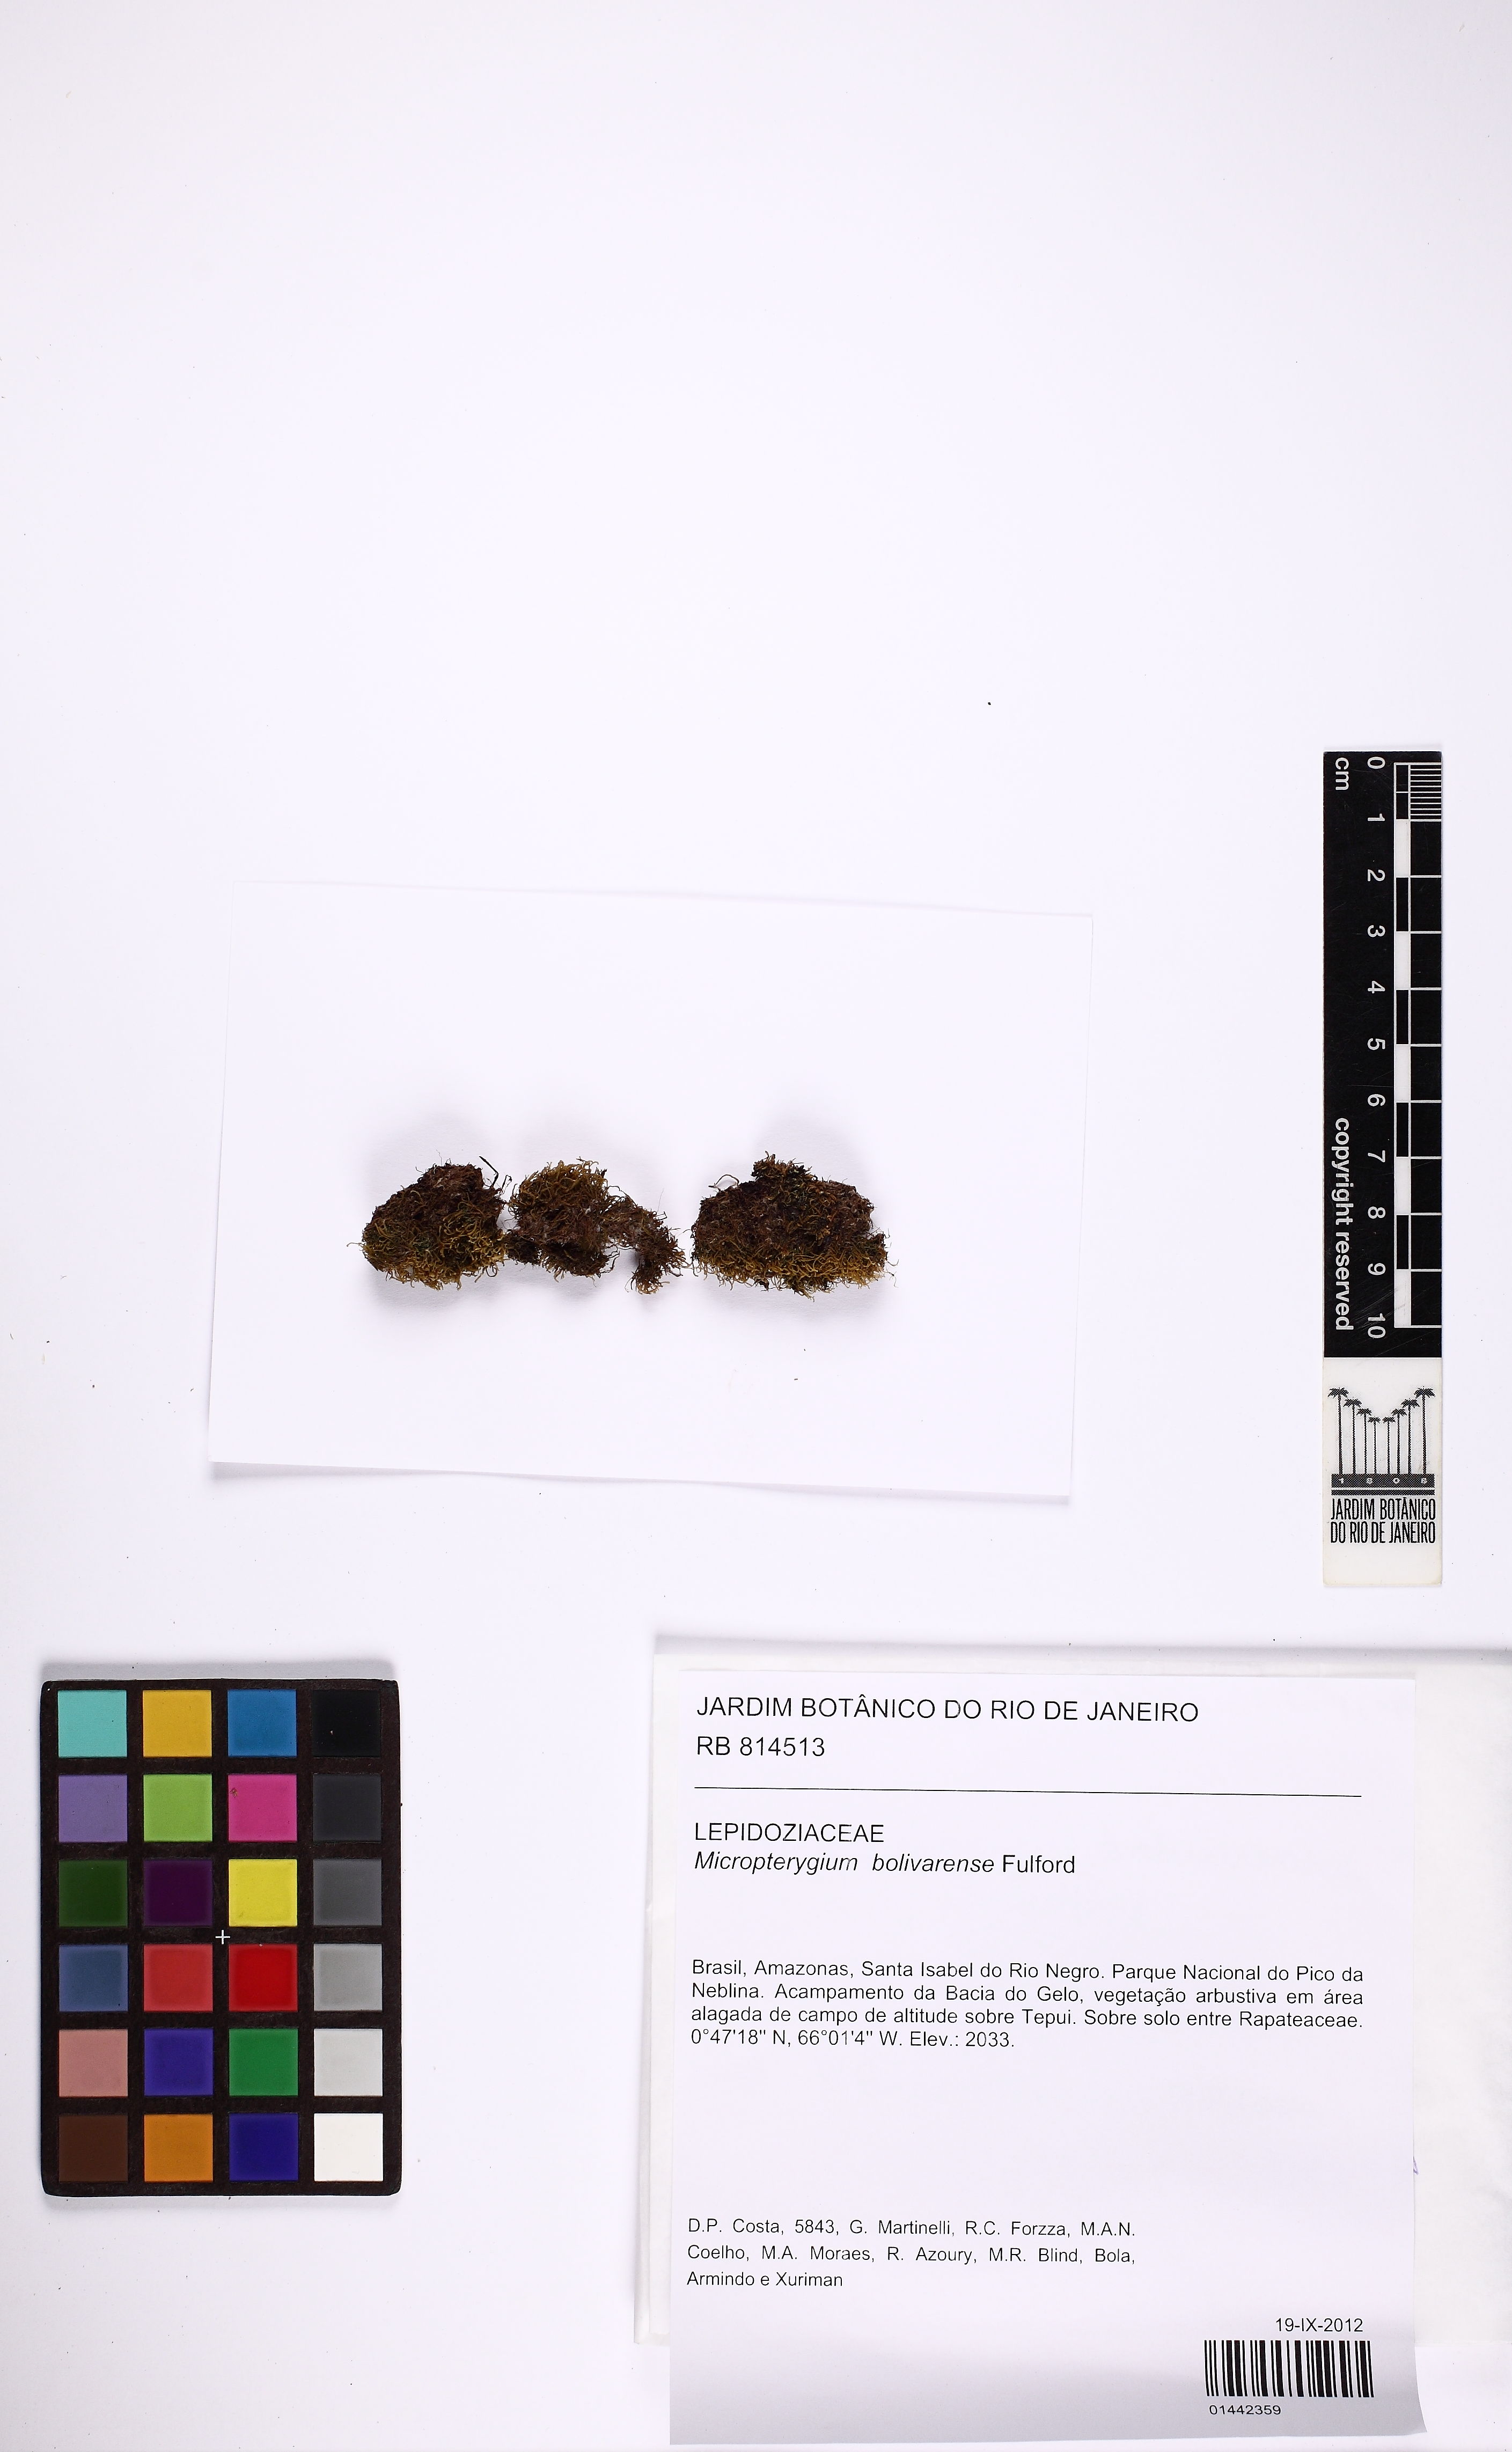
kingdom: Plantae
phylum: Marchantiophyta
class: Jungermanniopsida
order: Jungermanniales
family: Lepidoziaceae
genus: Micropterygium
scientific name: Micropterygium bolivarense
